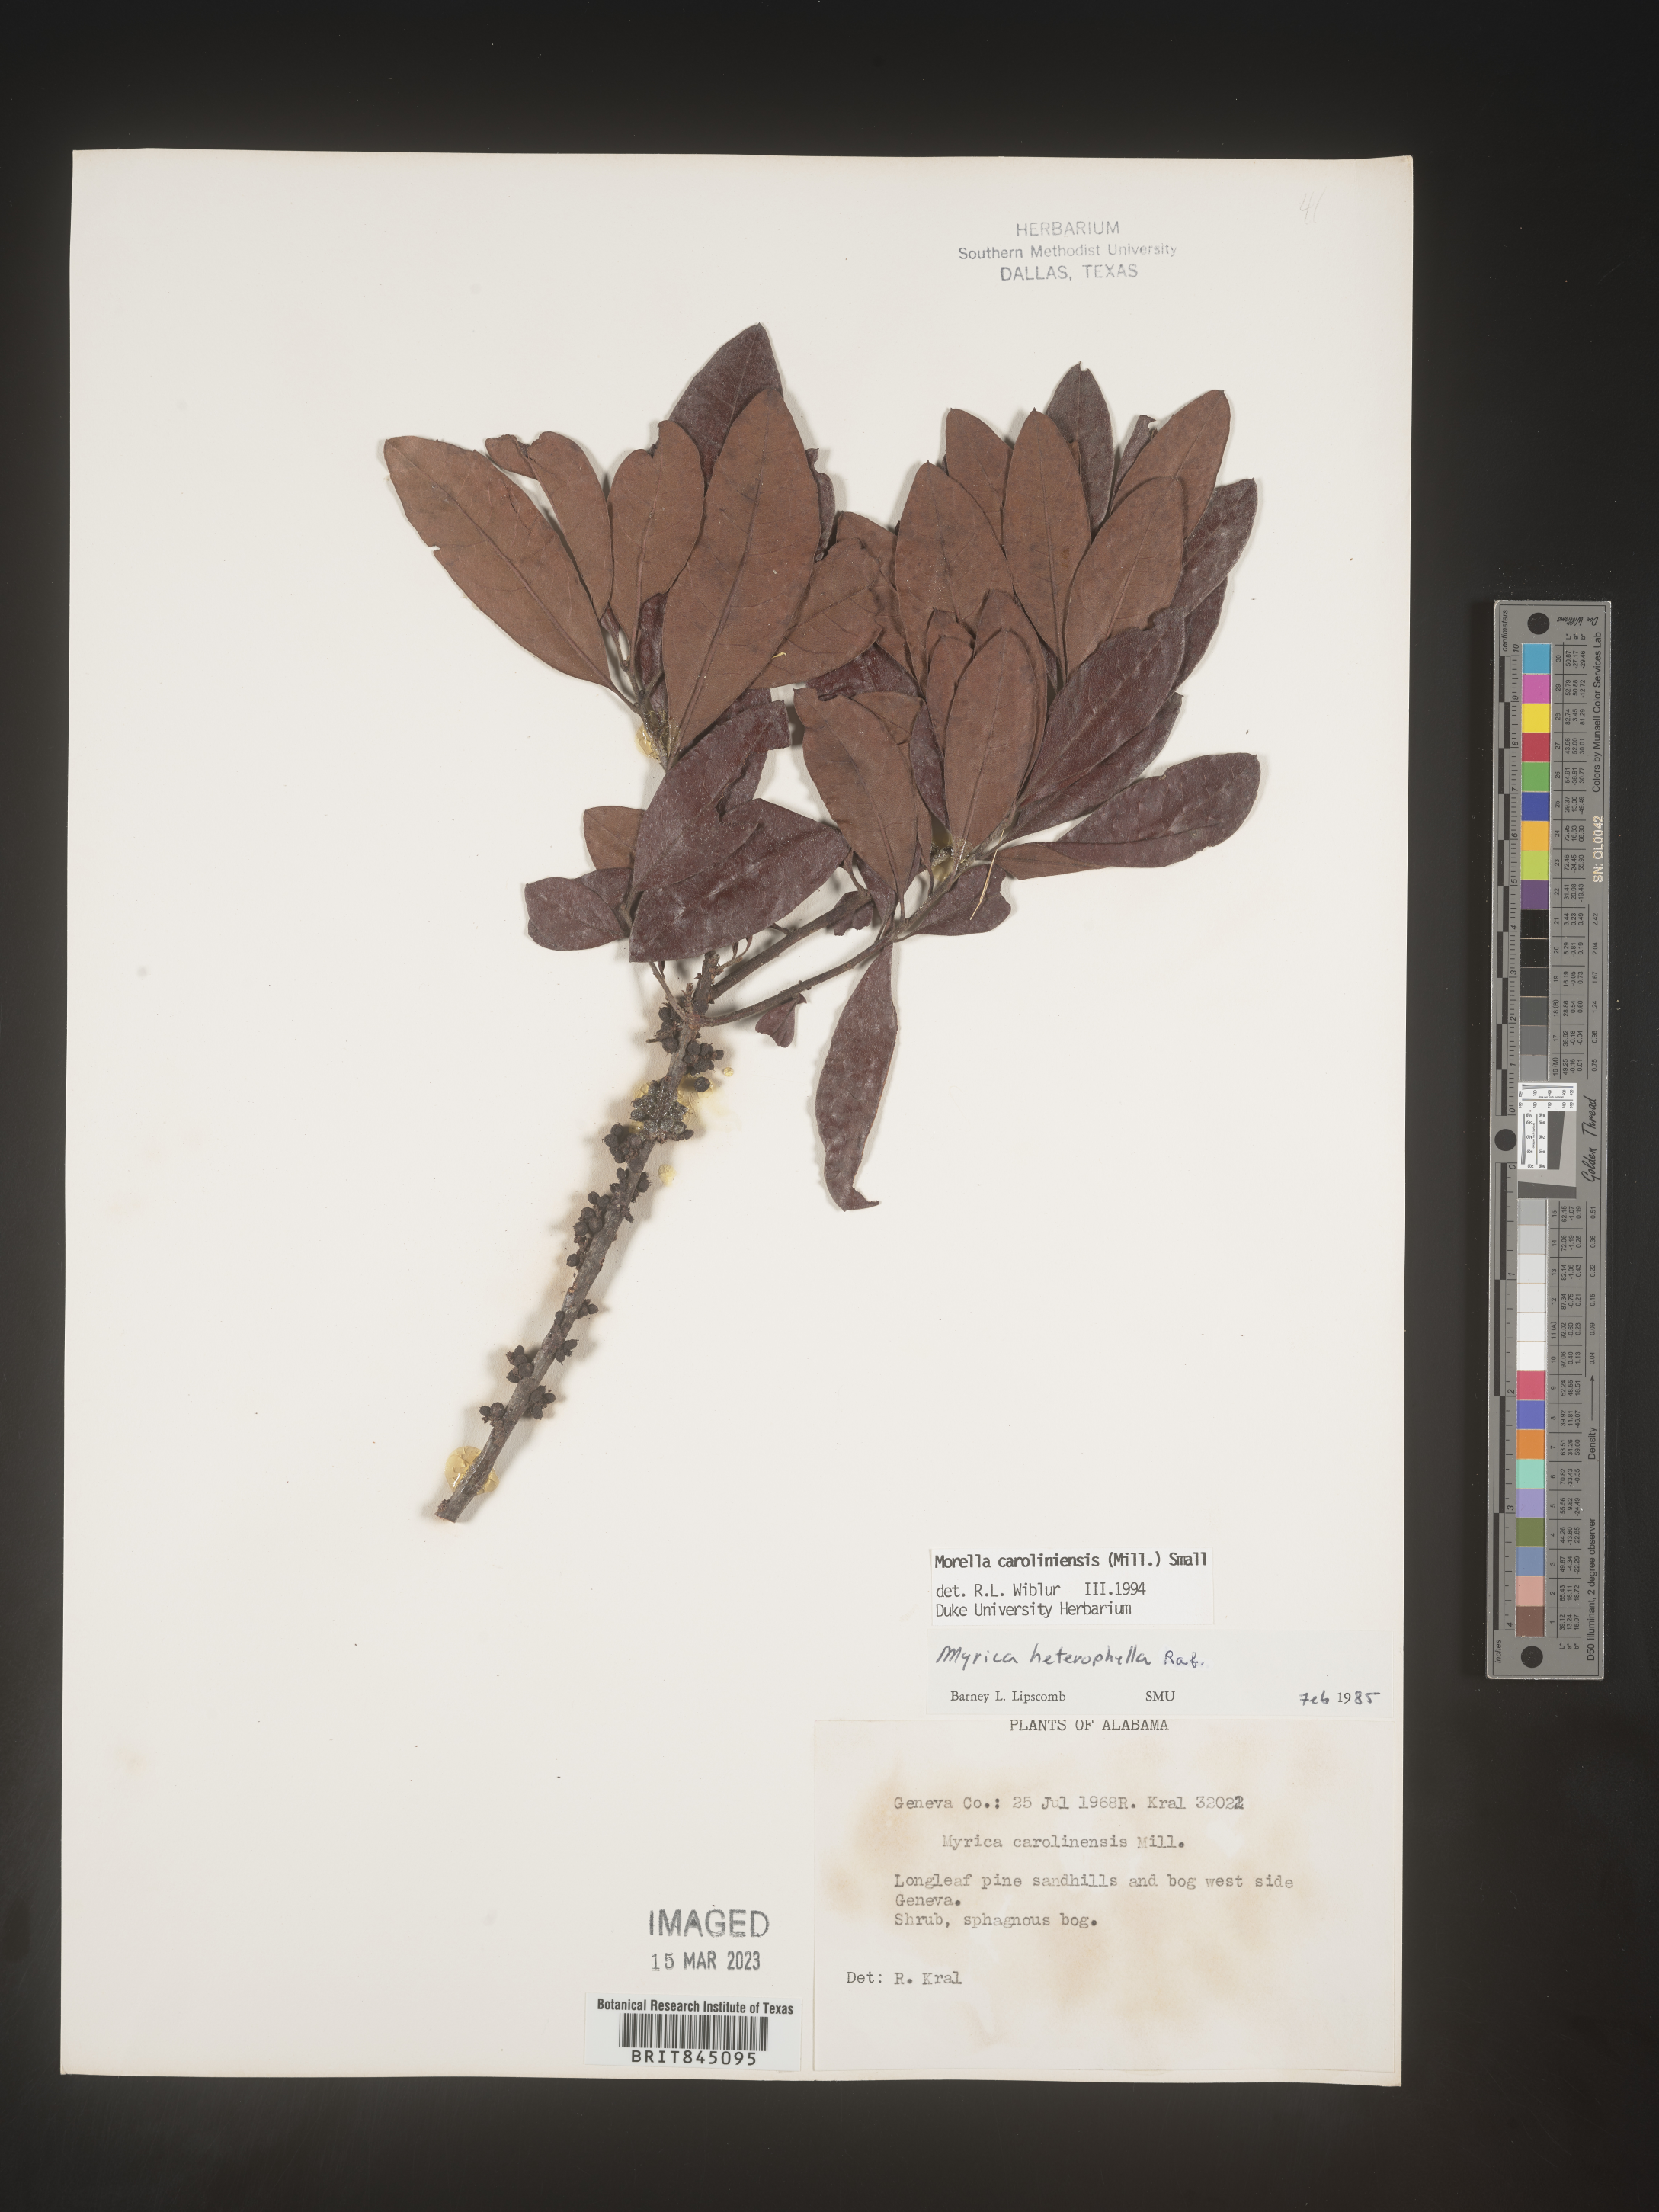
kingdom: Plantae
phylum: Tracheophyta
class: Magnoliopsida
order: Fagales
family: Myricaceae
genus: Morella
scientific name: Morella caroliniensis
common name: Evergreen bayberry
